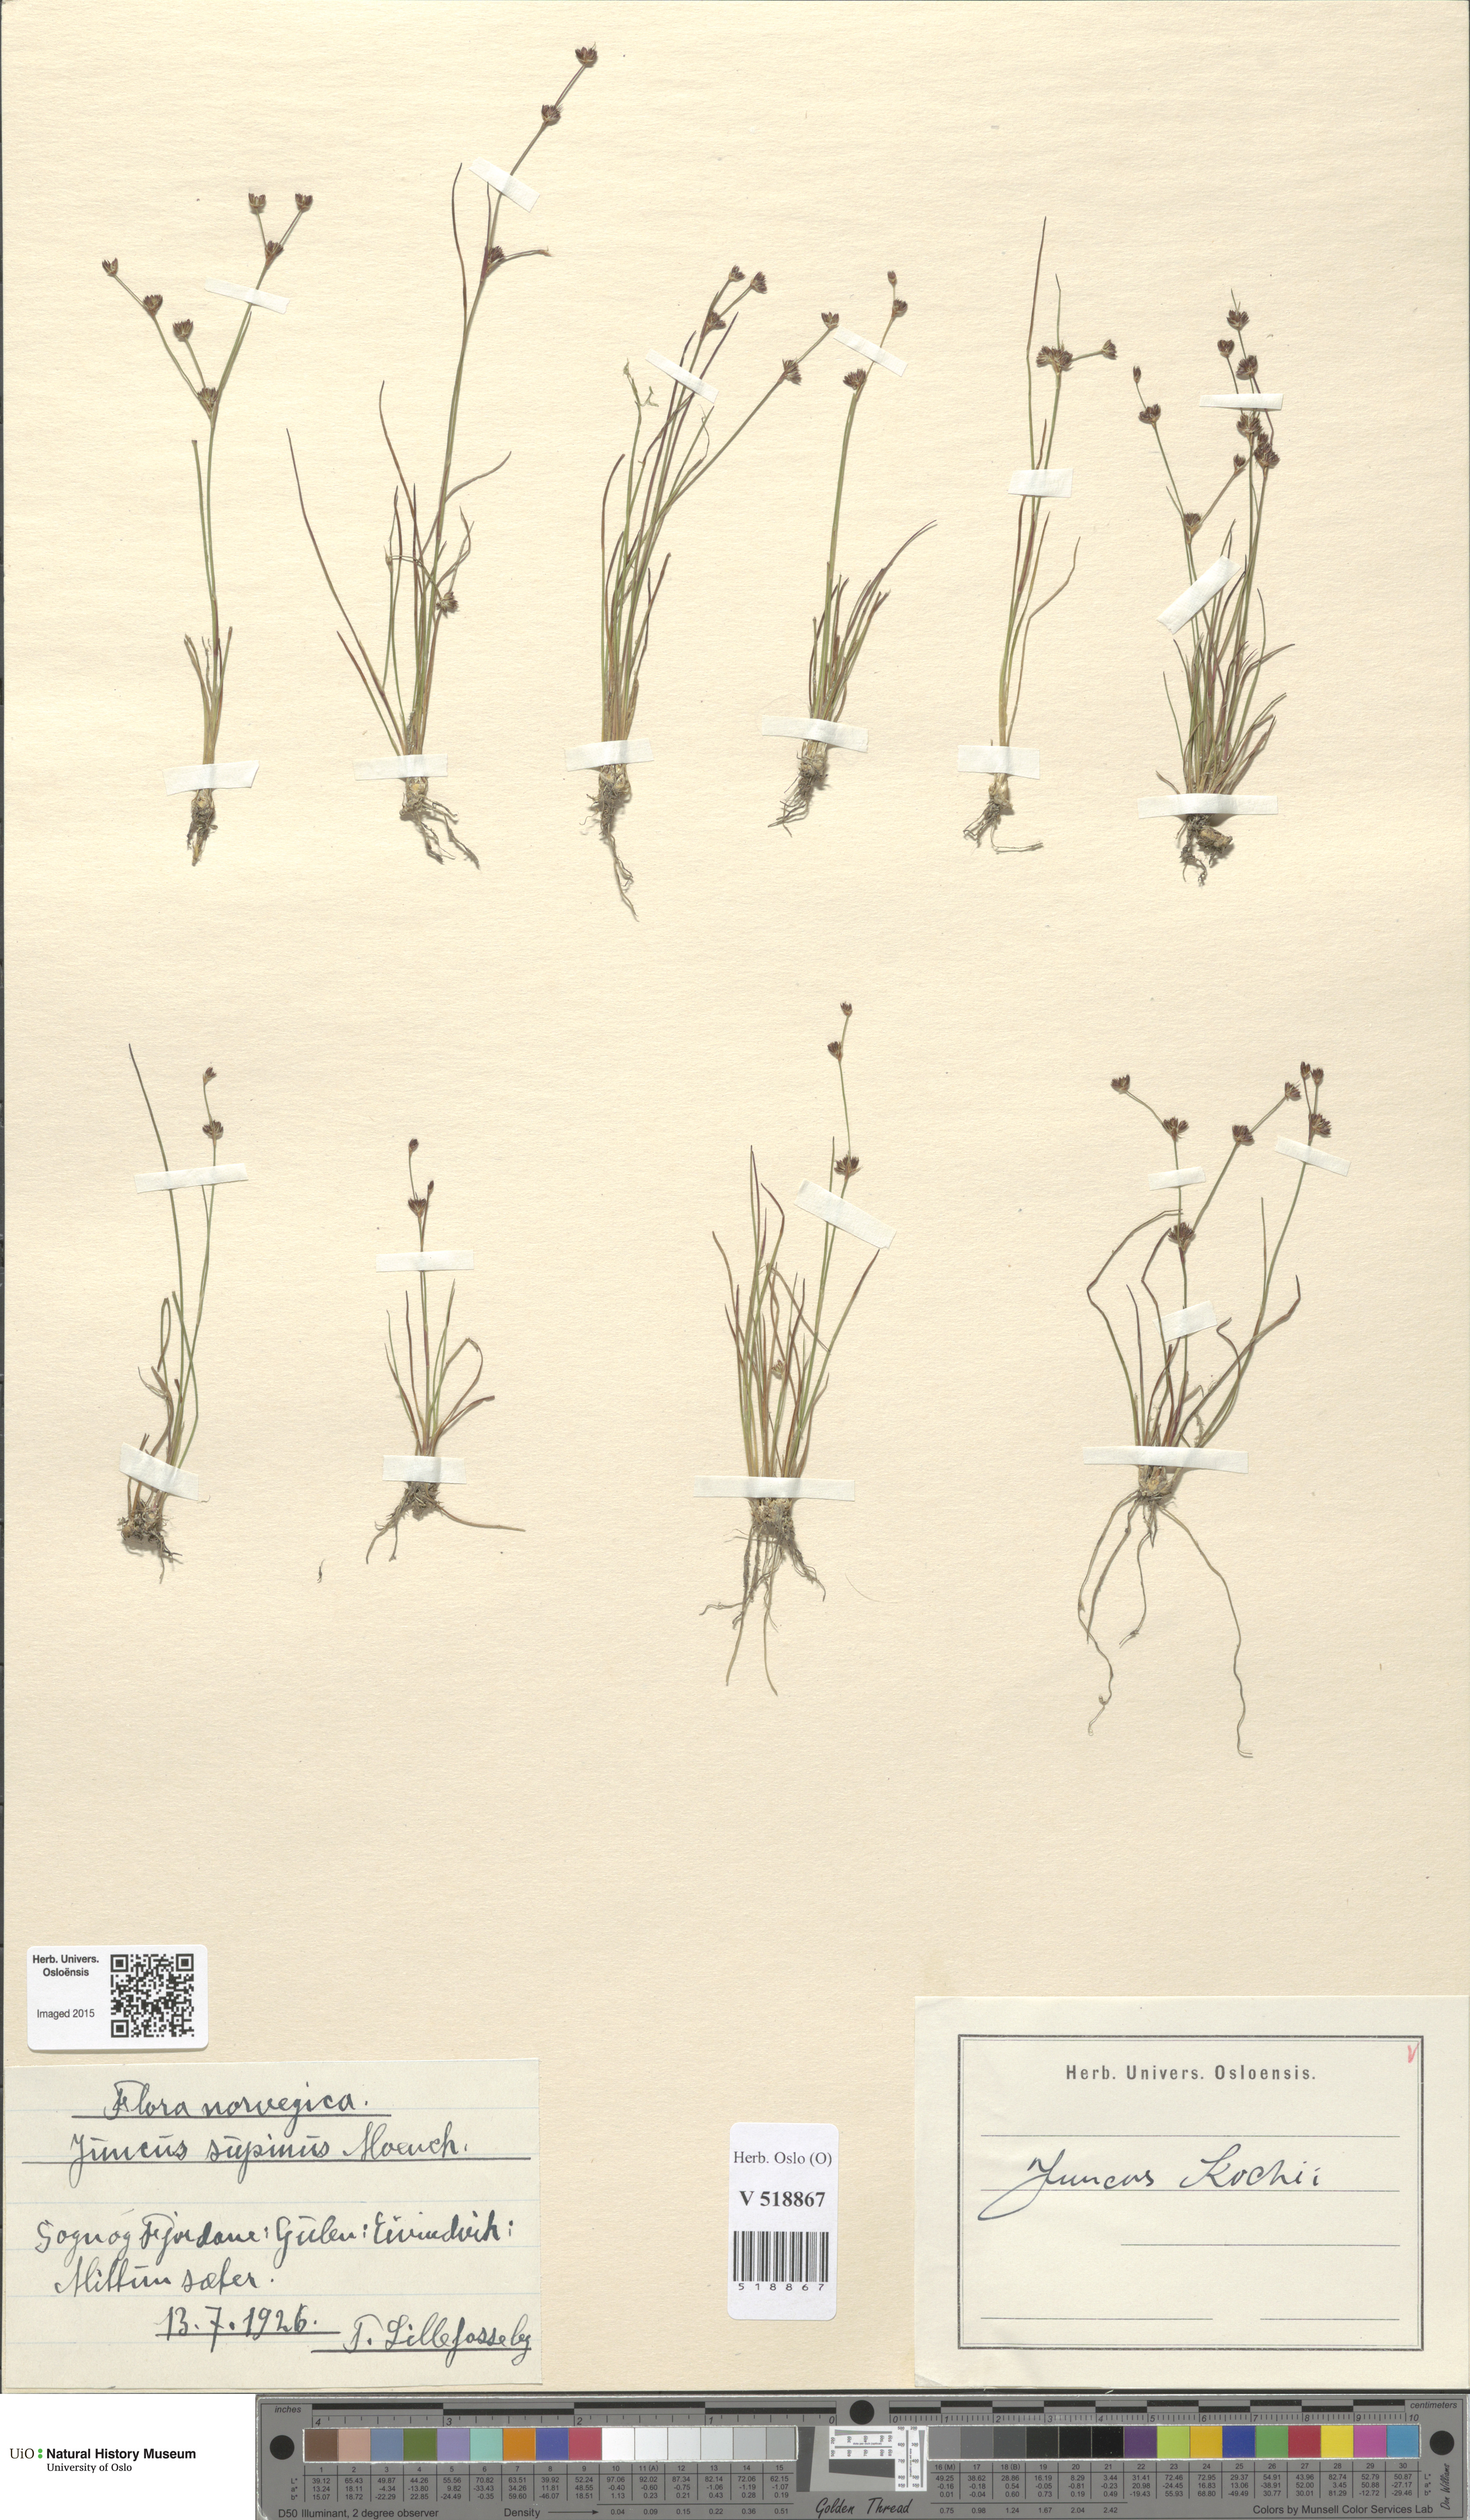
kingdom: Plantae
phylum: Tracheophyta
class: Liliopsida
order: Poales
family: Juncaceae
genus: Juncus
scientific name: Juncus bulbosus
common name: Bulbous rush
